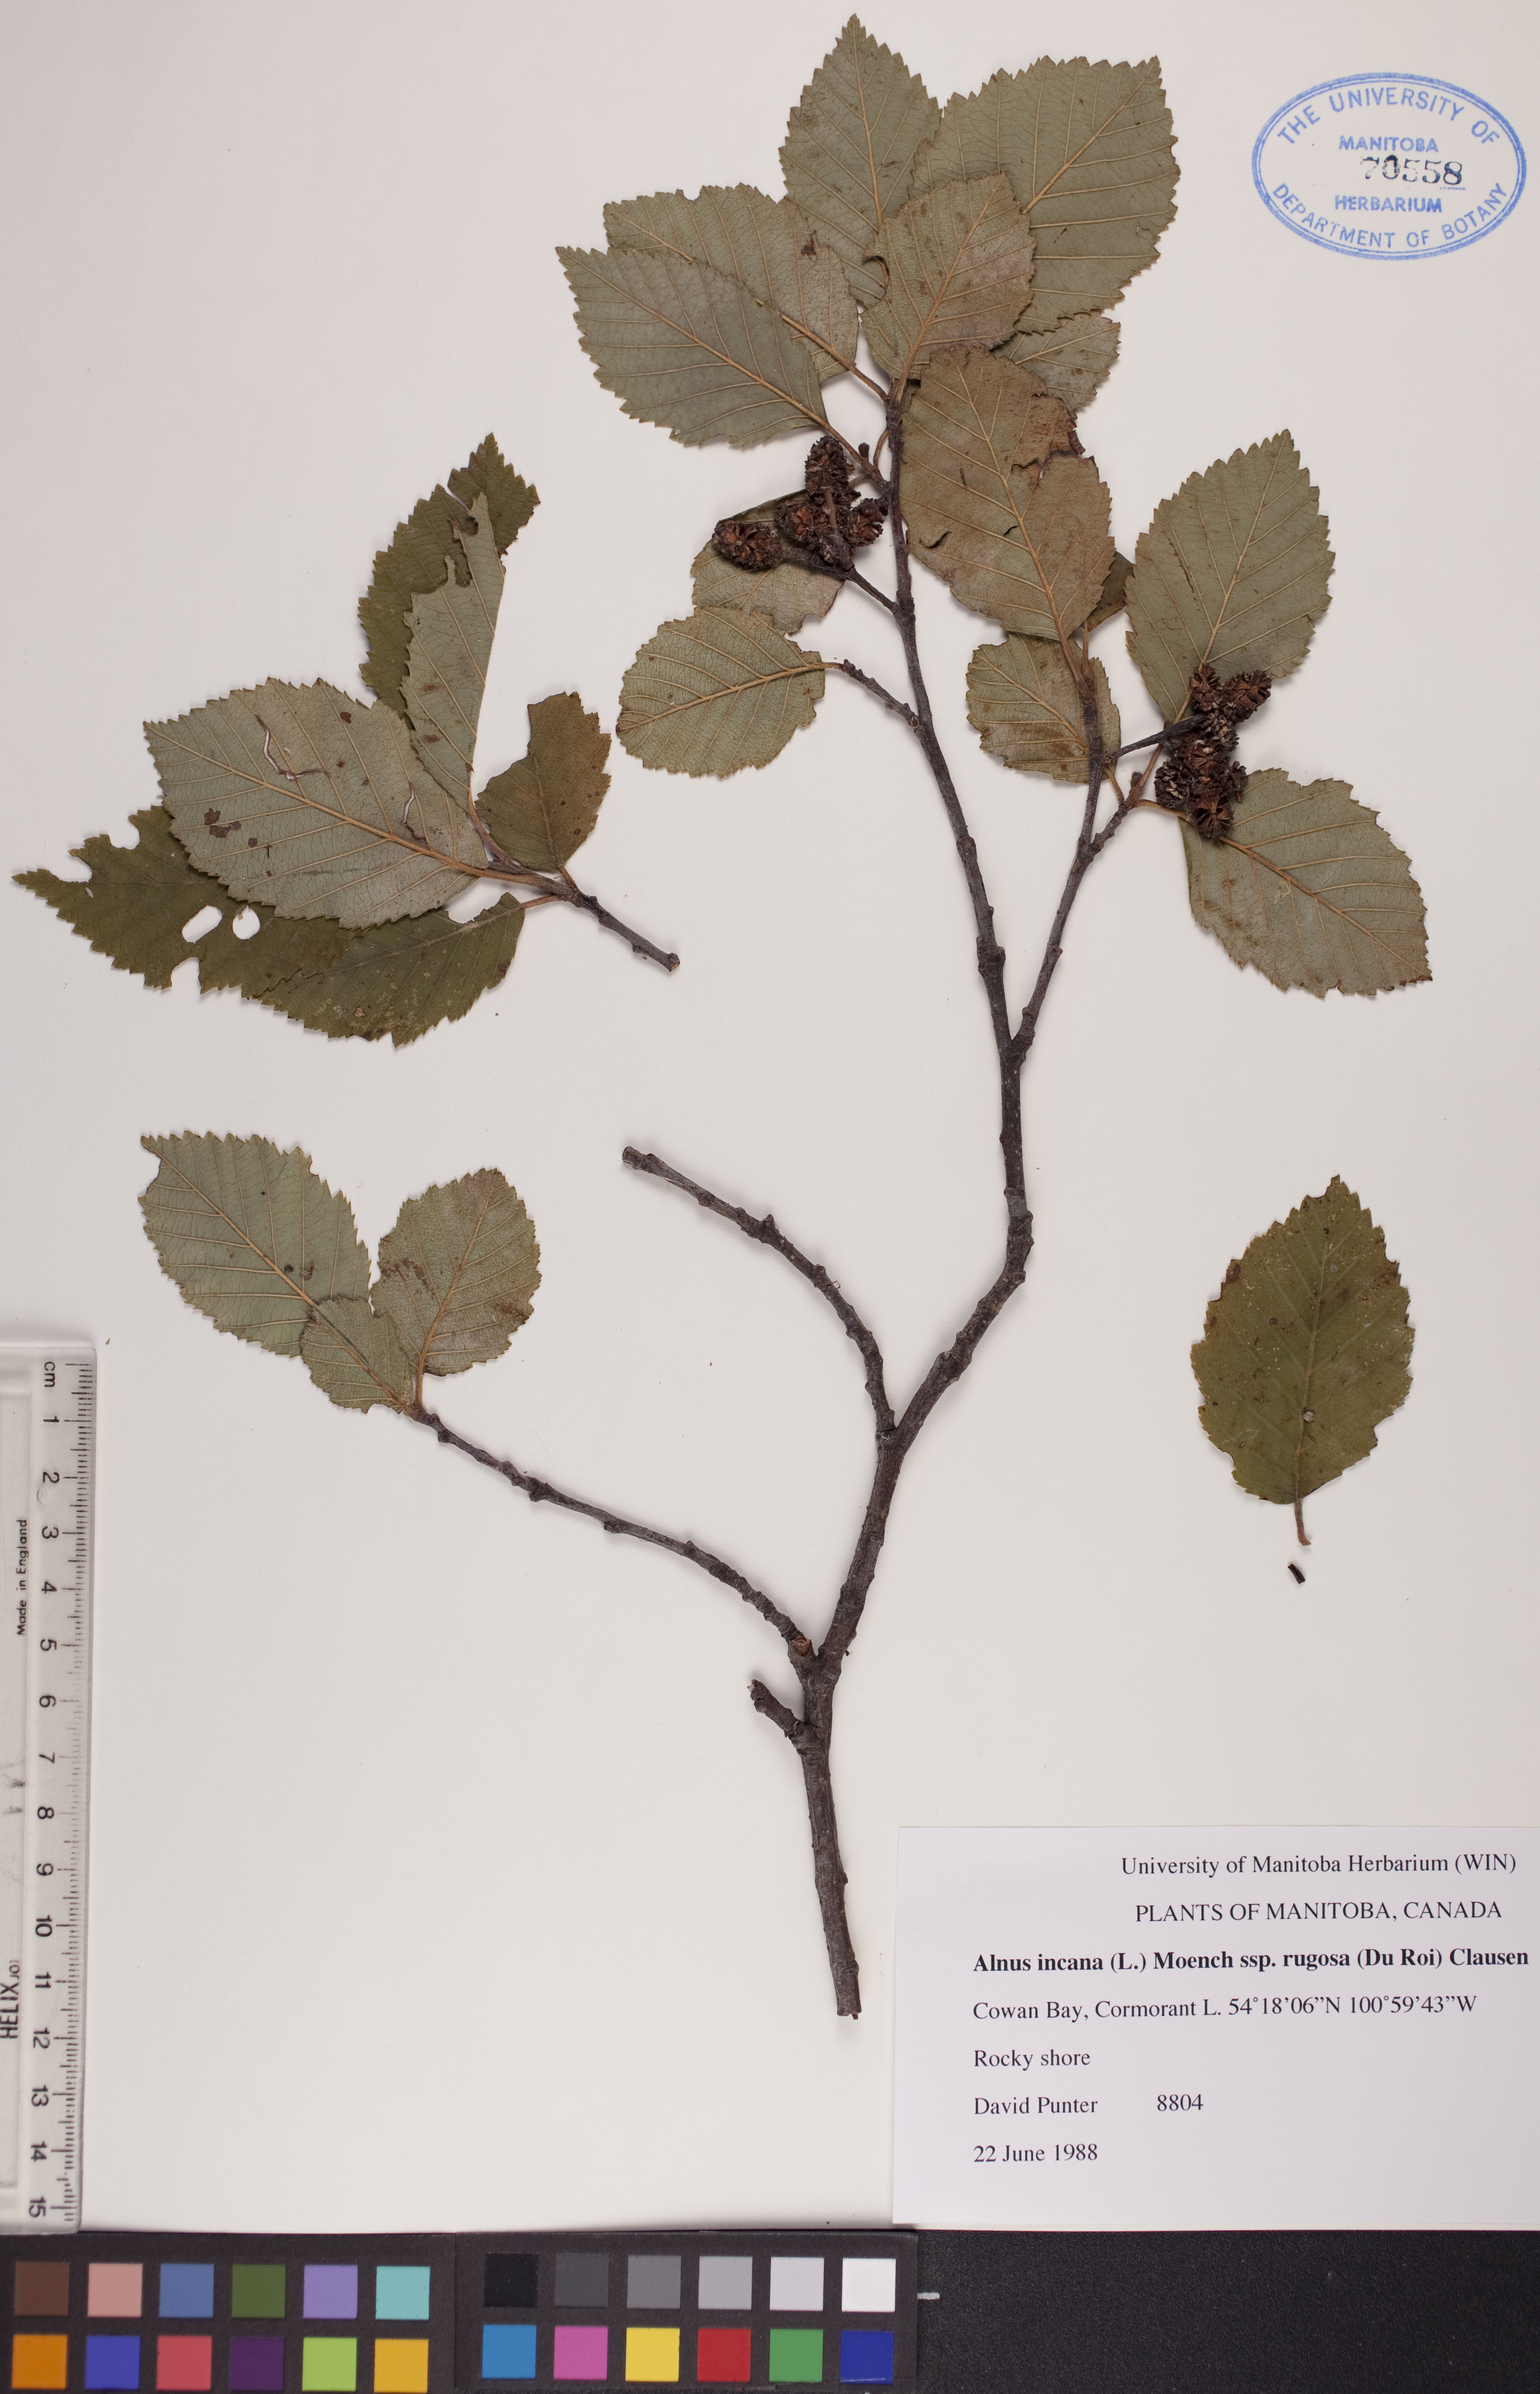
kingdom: Plantae
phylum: Tracheophyta
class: Magnoliopsida
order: Fagales
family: Betulaceae
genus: Alnus
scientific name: Alnus incana
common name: Grey alder
